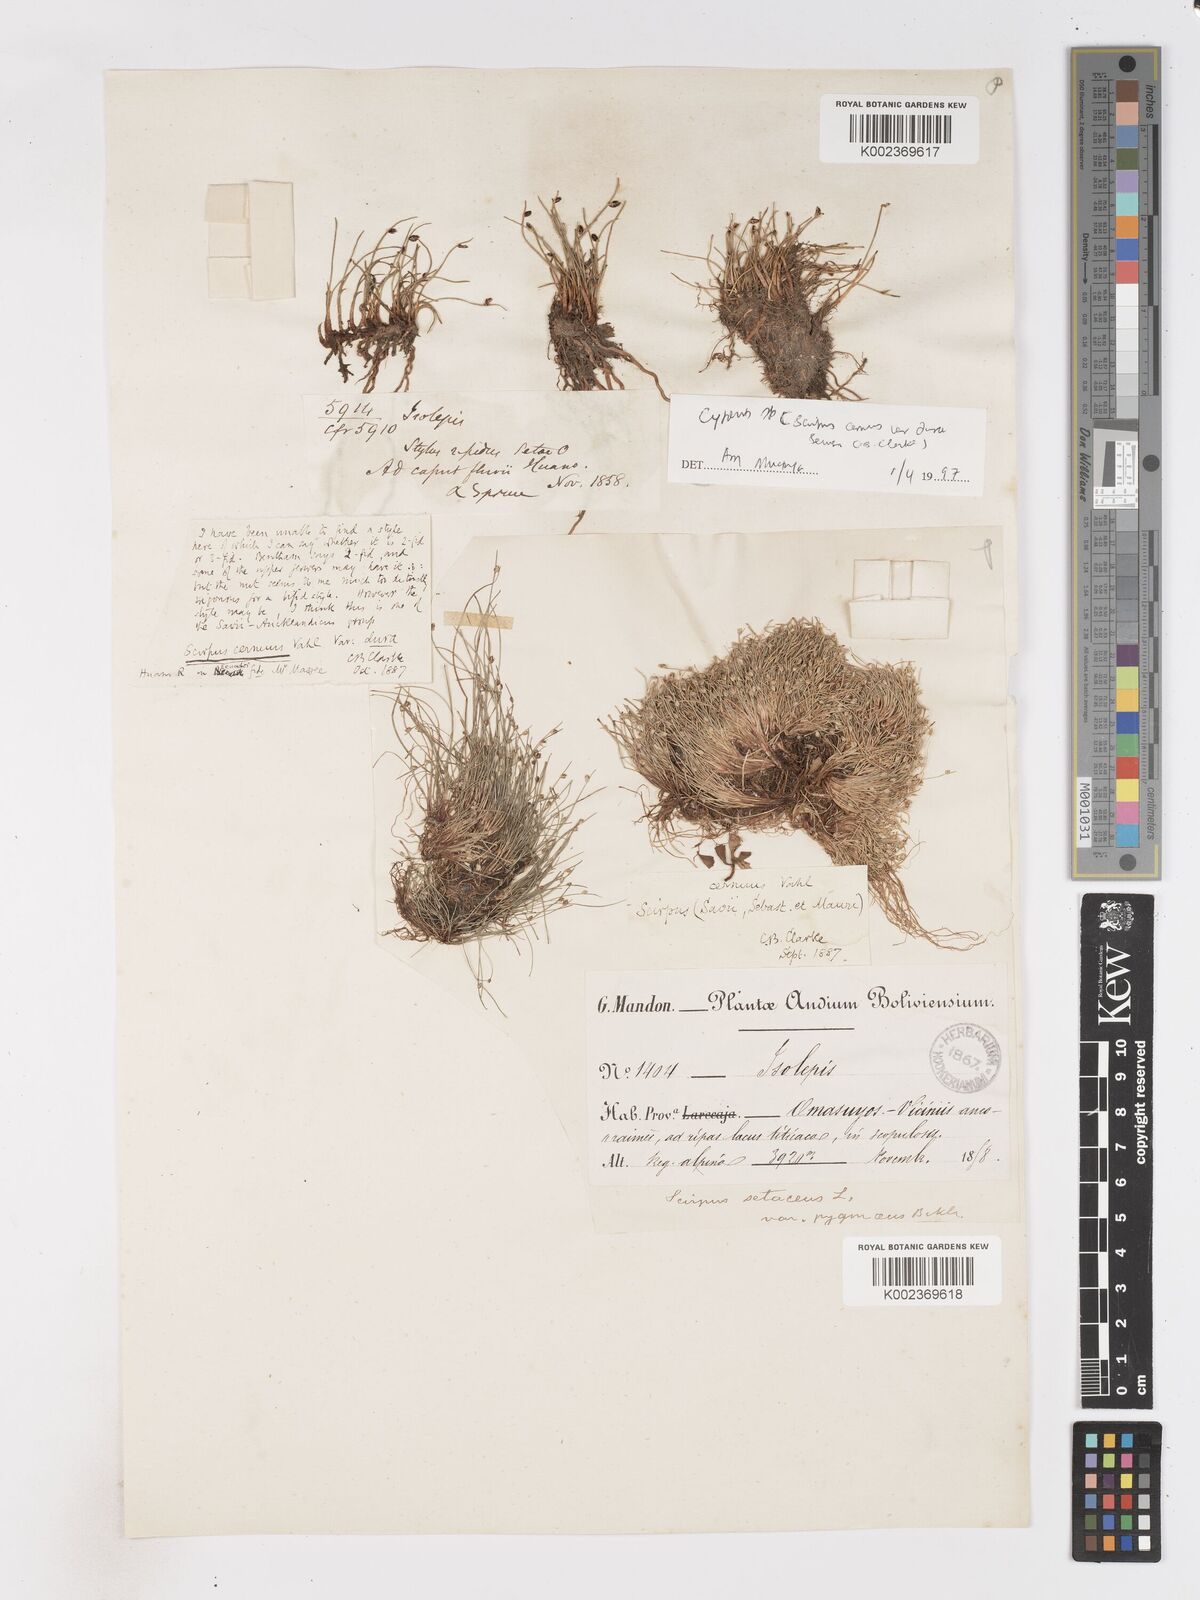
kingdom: Plantae
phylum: Tracheophyta
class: Liliopsida
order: Poales
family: Cyperaceae
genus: Isolepis
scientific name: Isolepis cernua
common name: Slender club-rush
